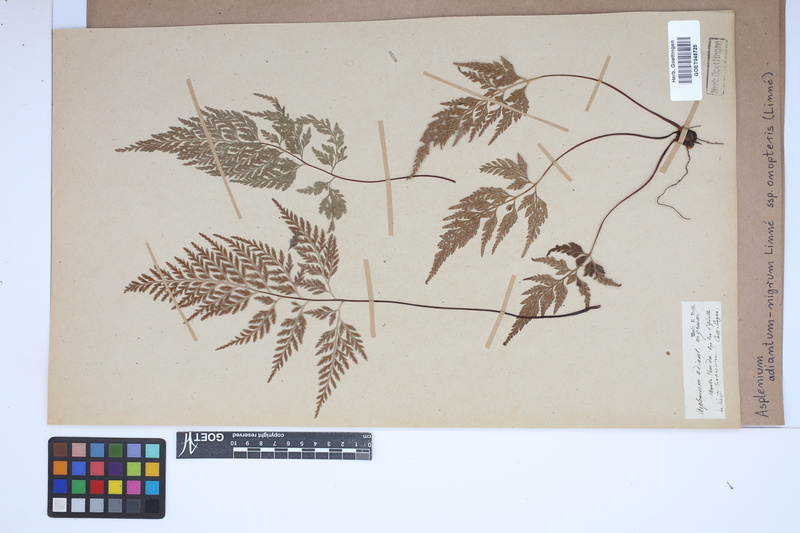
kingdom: Plantae
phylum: Tracheophyta
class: Polypodiopsida
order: Polypodiales
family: Aspleniaceae
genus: Asplenium
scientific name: Asplenium onopteris
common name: Irish spleenwort
